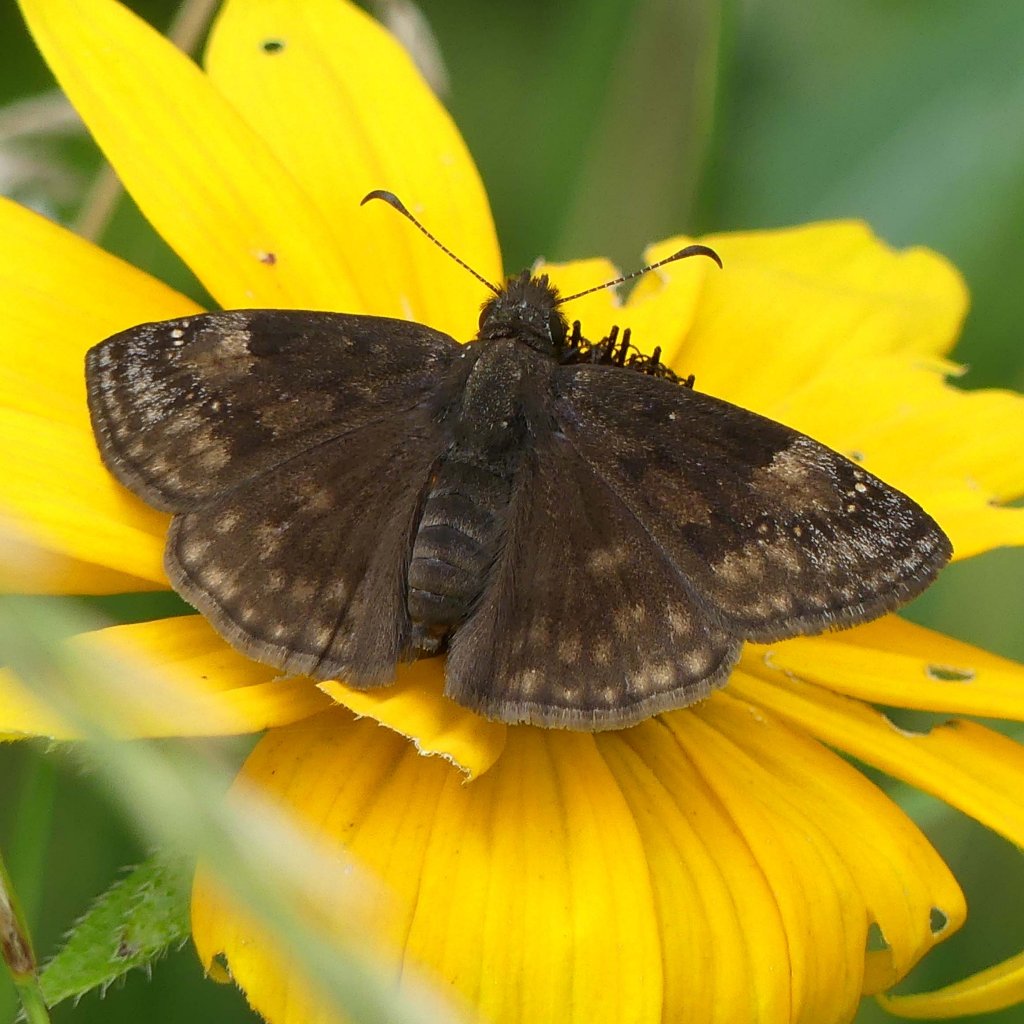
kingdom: Animalia
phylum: Arthropoda
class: Insecta
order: Lepidoptera
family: Hesperiidae
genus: Gesta
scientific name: Gesta
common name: Wild Indigo Duskywing
